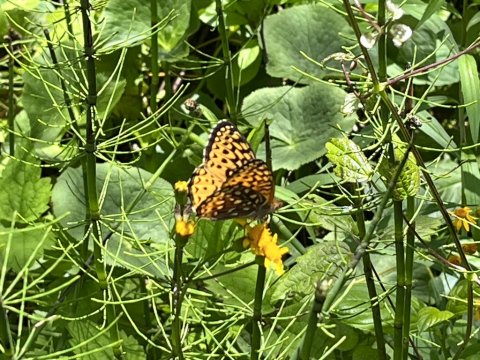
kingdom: Animalia
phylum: Arthropoda
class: Insecta
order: Lepidoptera
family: Nymphalidae
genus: Speyeria
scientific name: Speyeria atlantis
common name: Atlantis Fritillary
